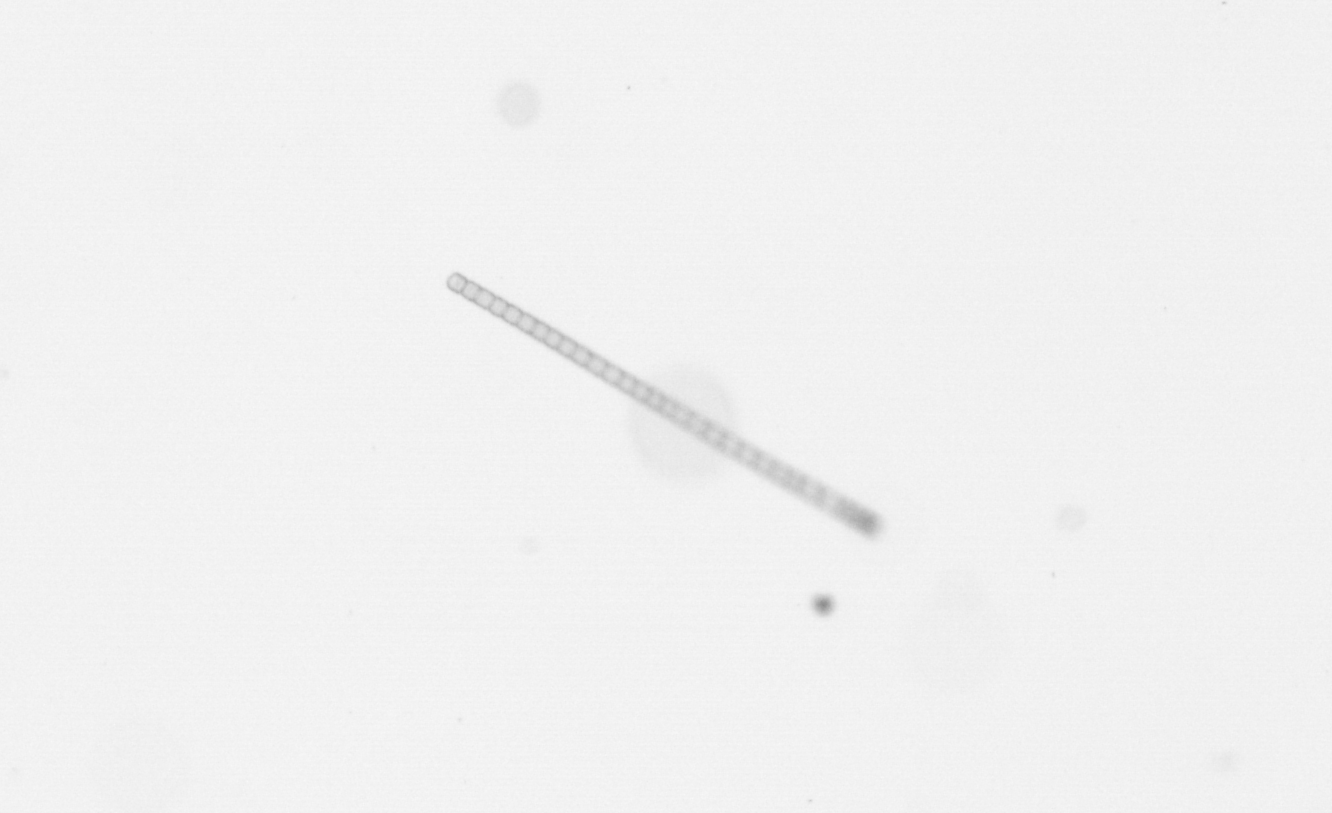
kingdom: Chromista
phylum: Ochrophyta
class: Bacillariophyceae
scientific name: Bacillariophyceae
